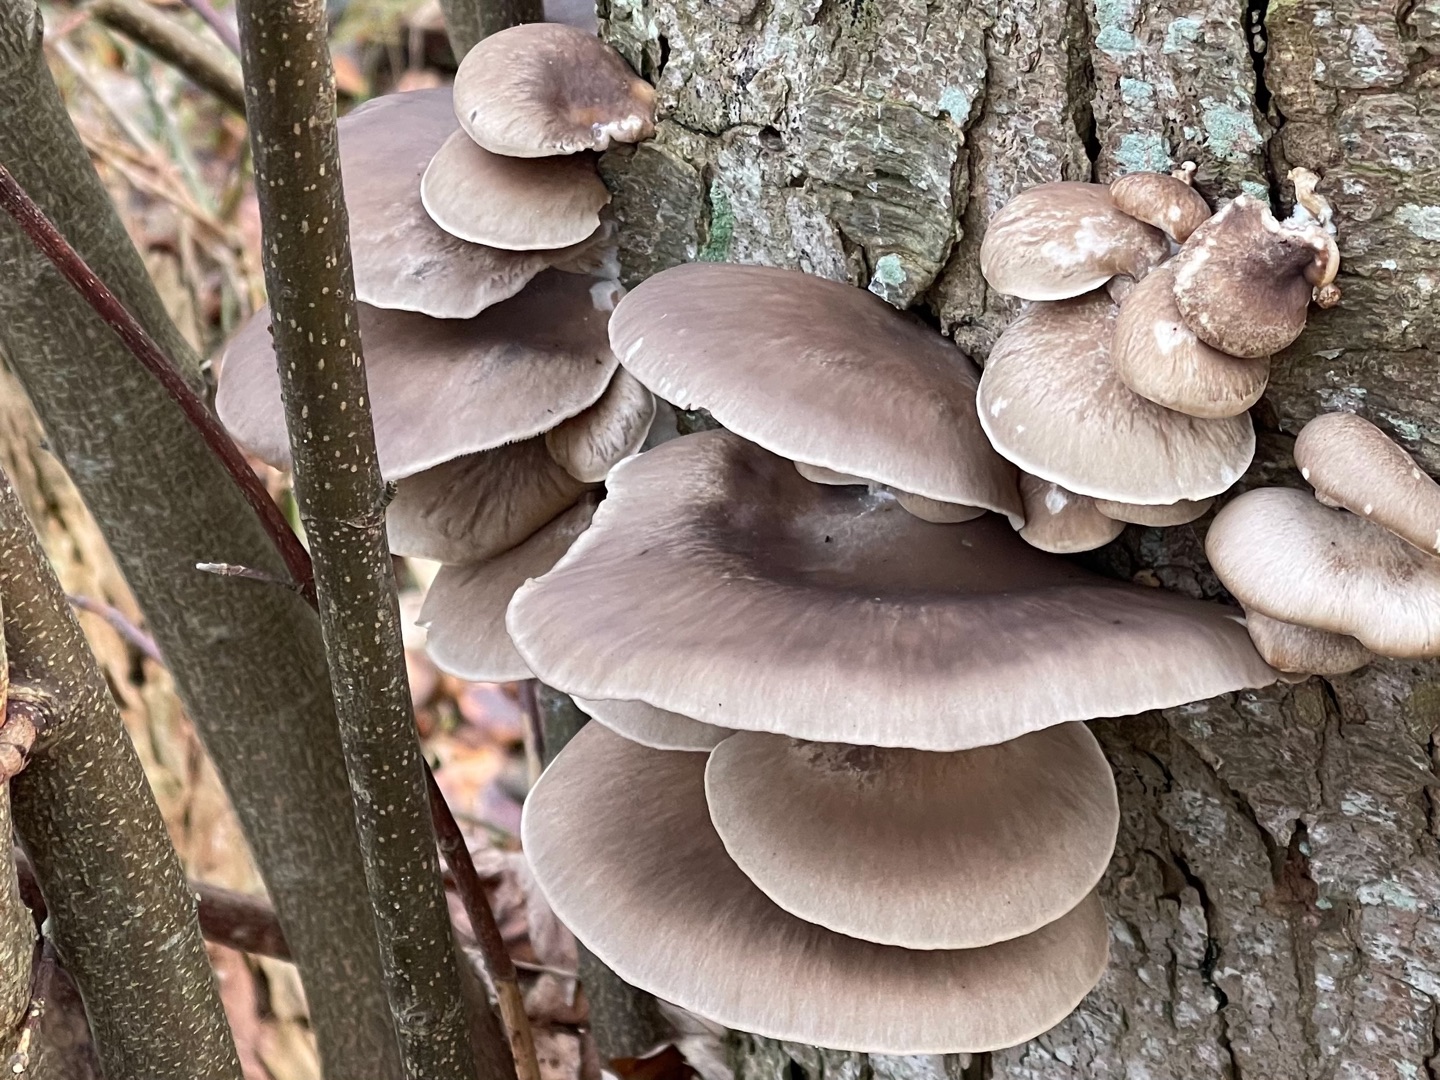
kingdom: Fungi
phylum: Basidiomycota
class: Agaricomycetes
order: Agaricales
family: Pleurotaceae
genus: Pleurotus
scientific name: Pleurotus ostreatus
